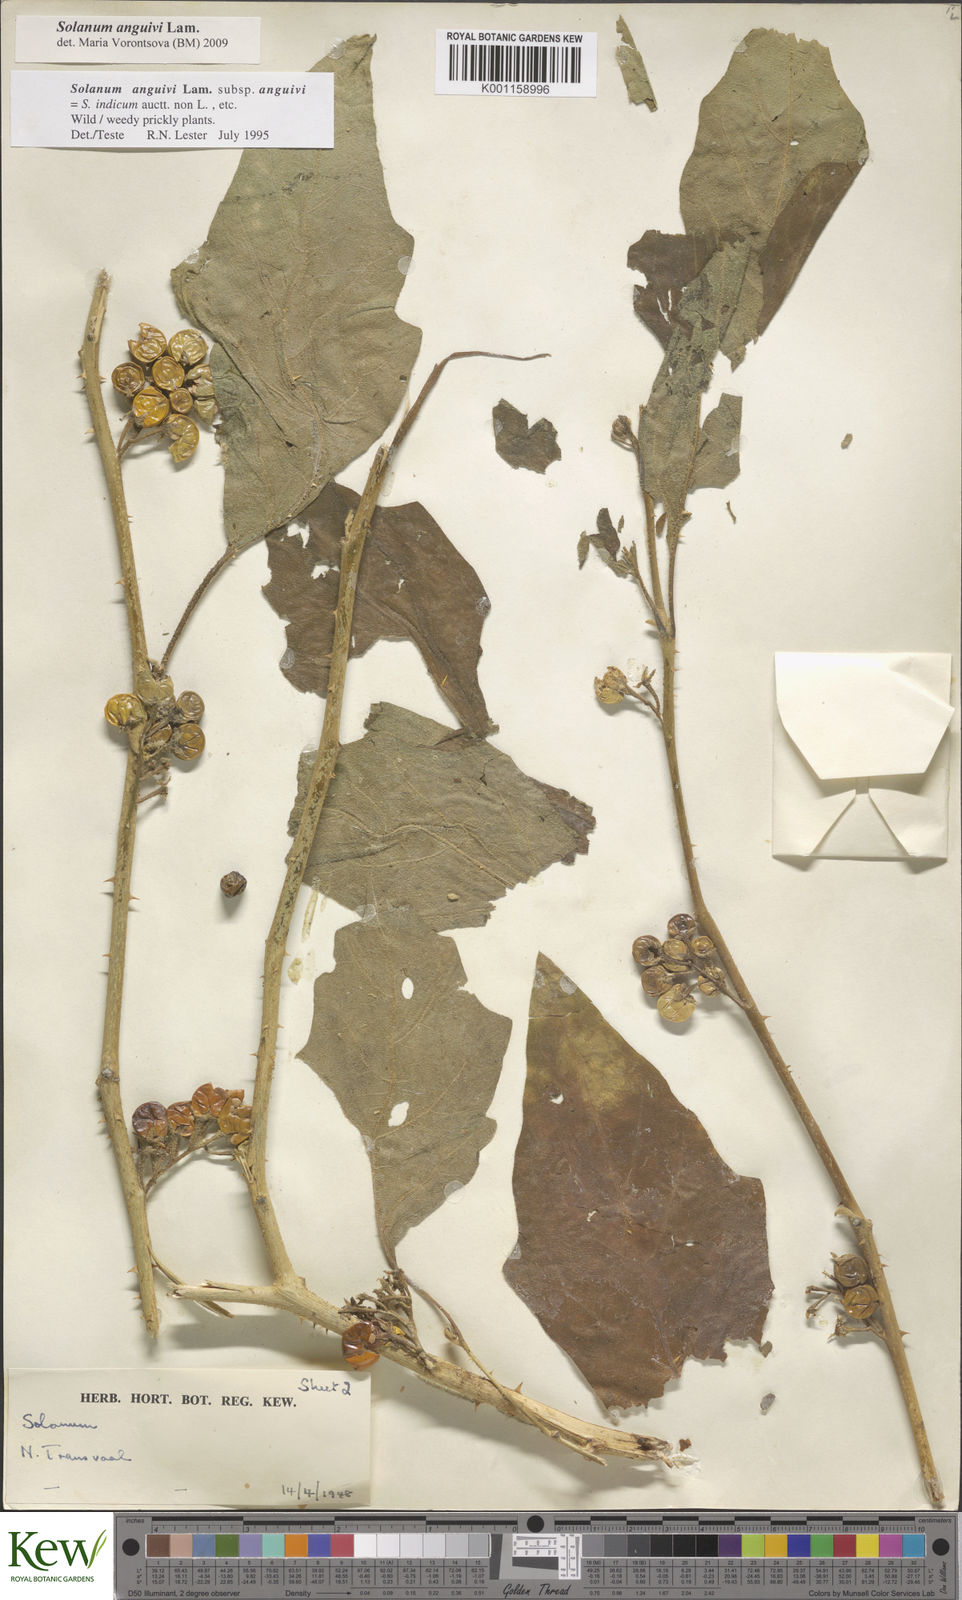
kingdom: Plantae
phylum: Tracheophyta
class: Magnoliopsida
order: Solanales
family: Solanaceae
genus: Solanum
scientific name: Solanum anguivi
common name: Forest bitterberry
